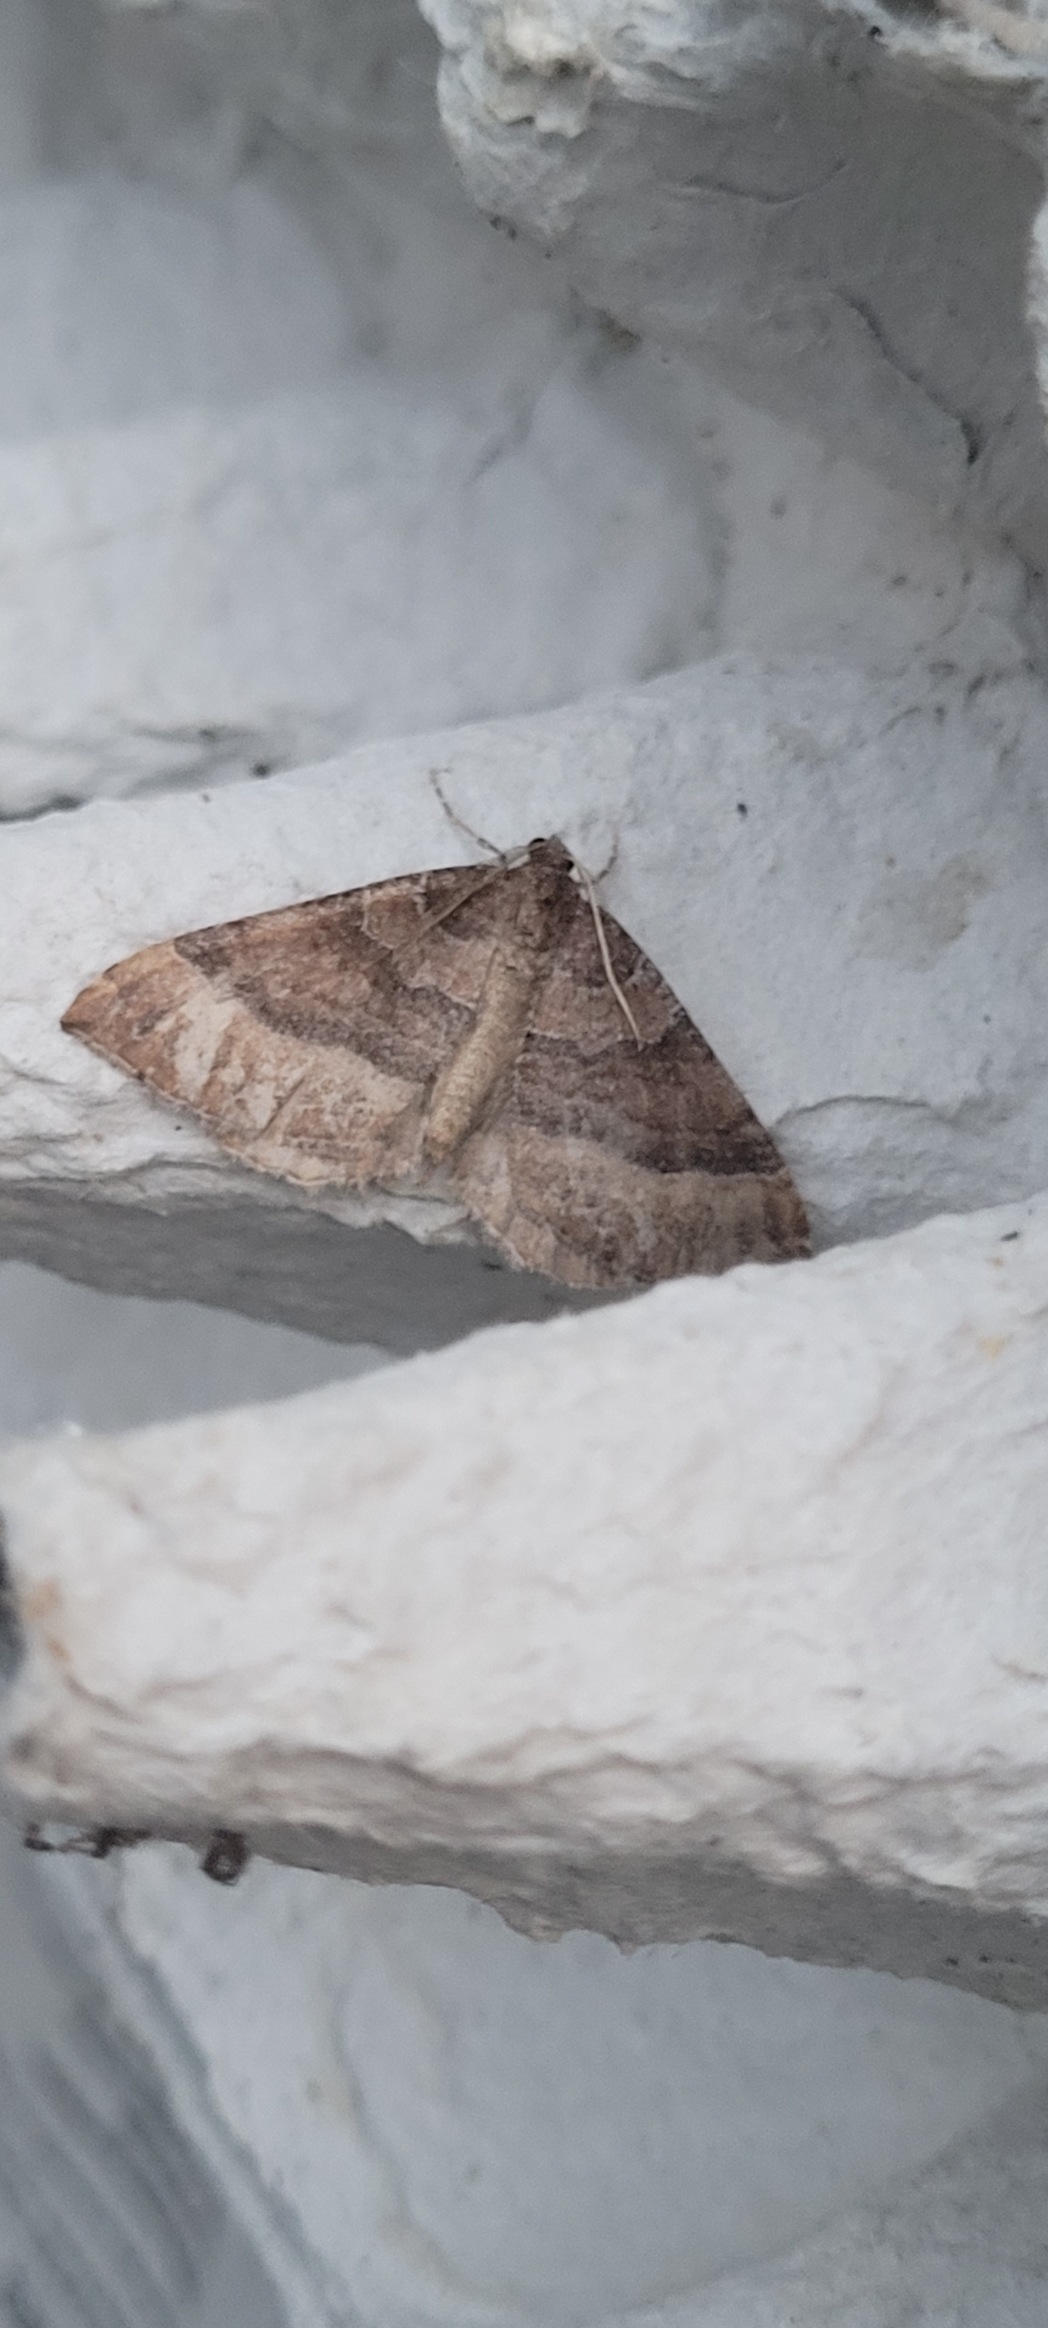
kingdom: Animalia
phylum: Arthropoda
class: Insecta
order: Lepidoptera
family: Geometridae
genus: Larentia
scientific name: Larentia clavaria
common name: Katostmåler
